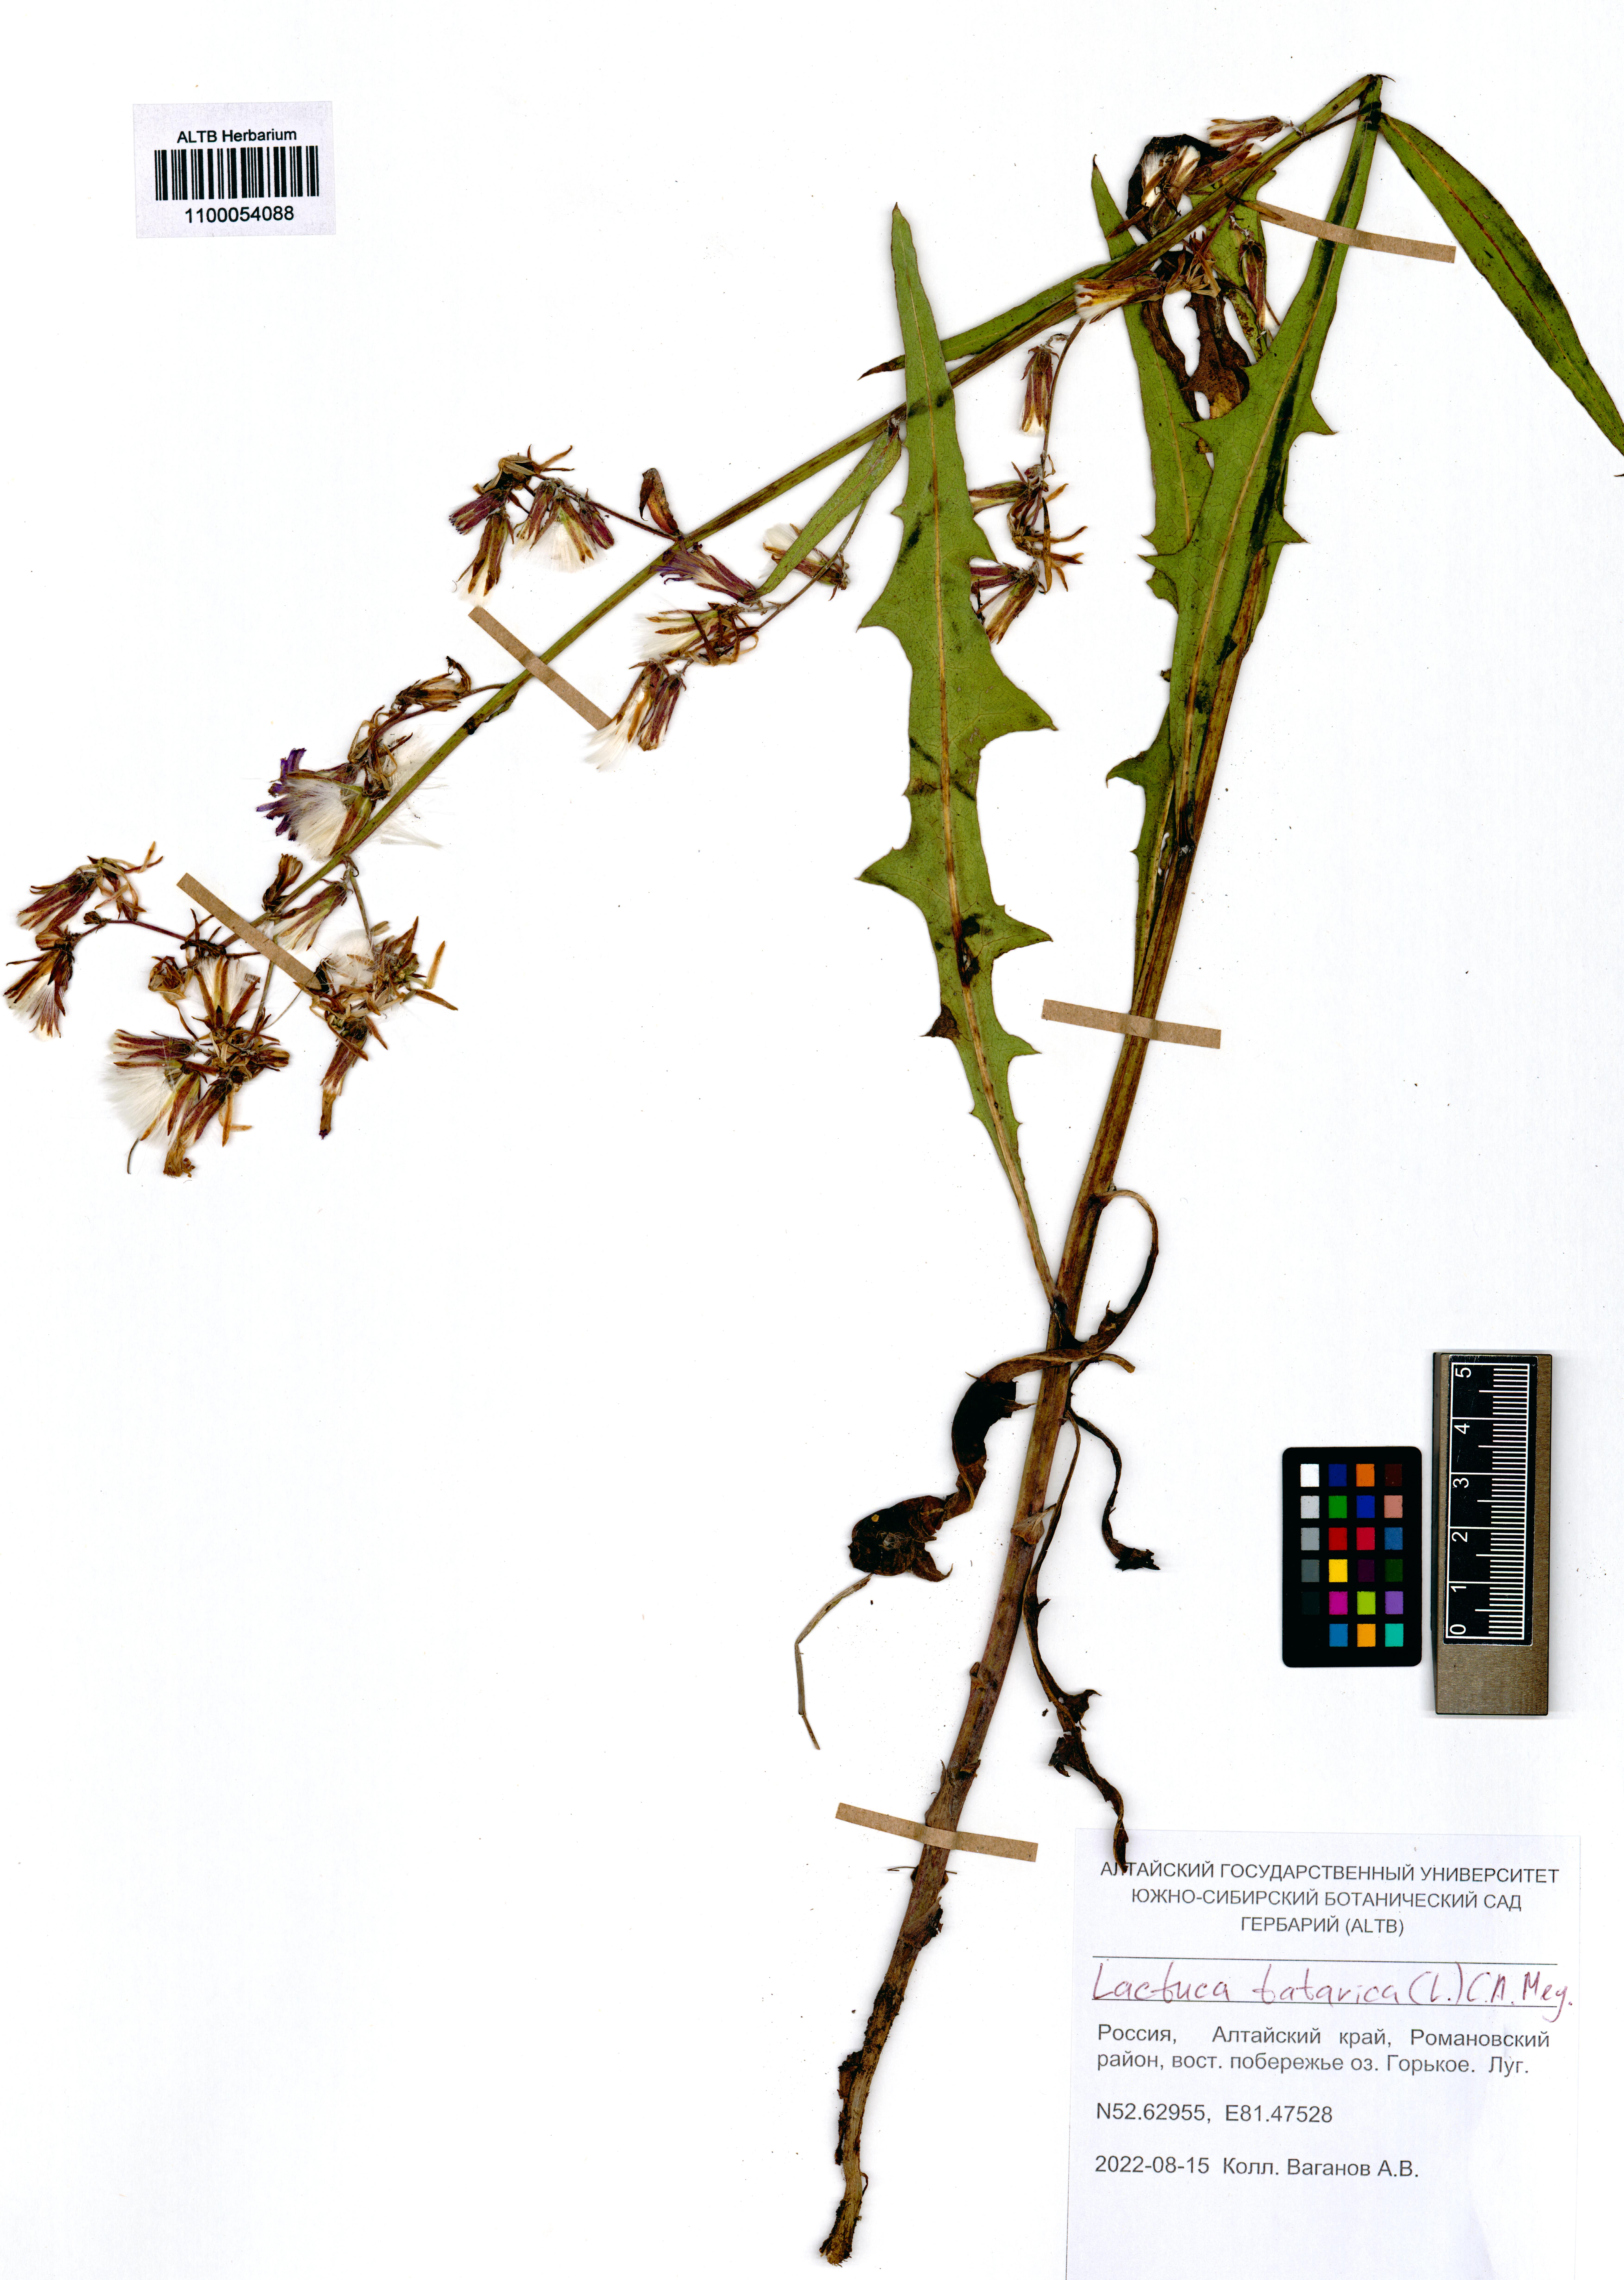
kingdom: Plantae
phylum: Tracheophyta
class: Magnoliopsida
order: Asterales
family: Asteraceae
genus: Lactuca
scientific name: Lactuca tatarica
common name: Blue lettuce
